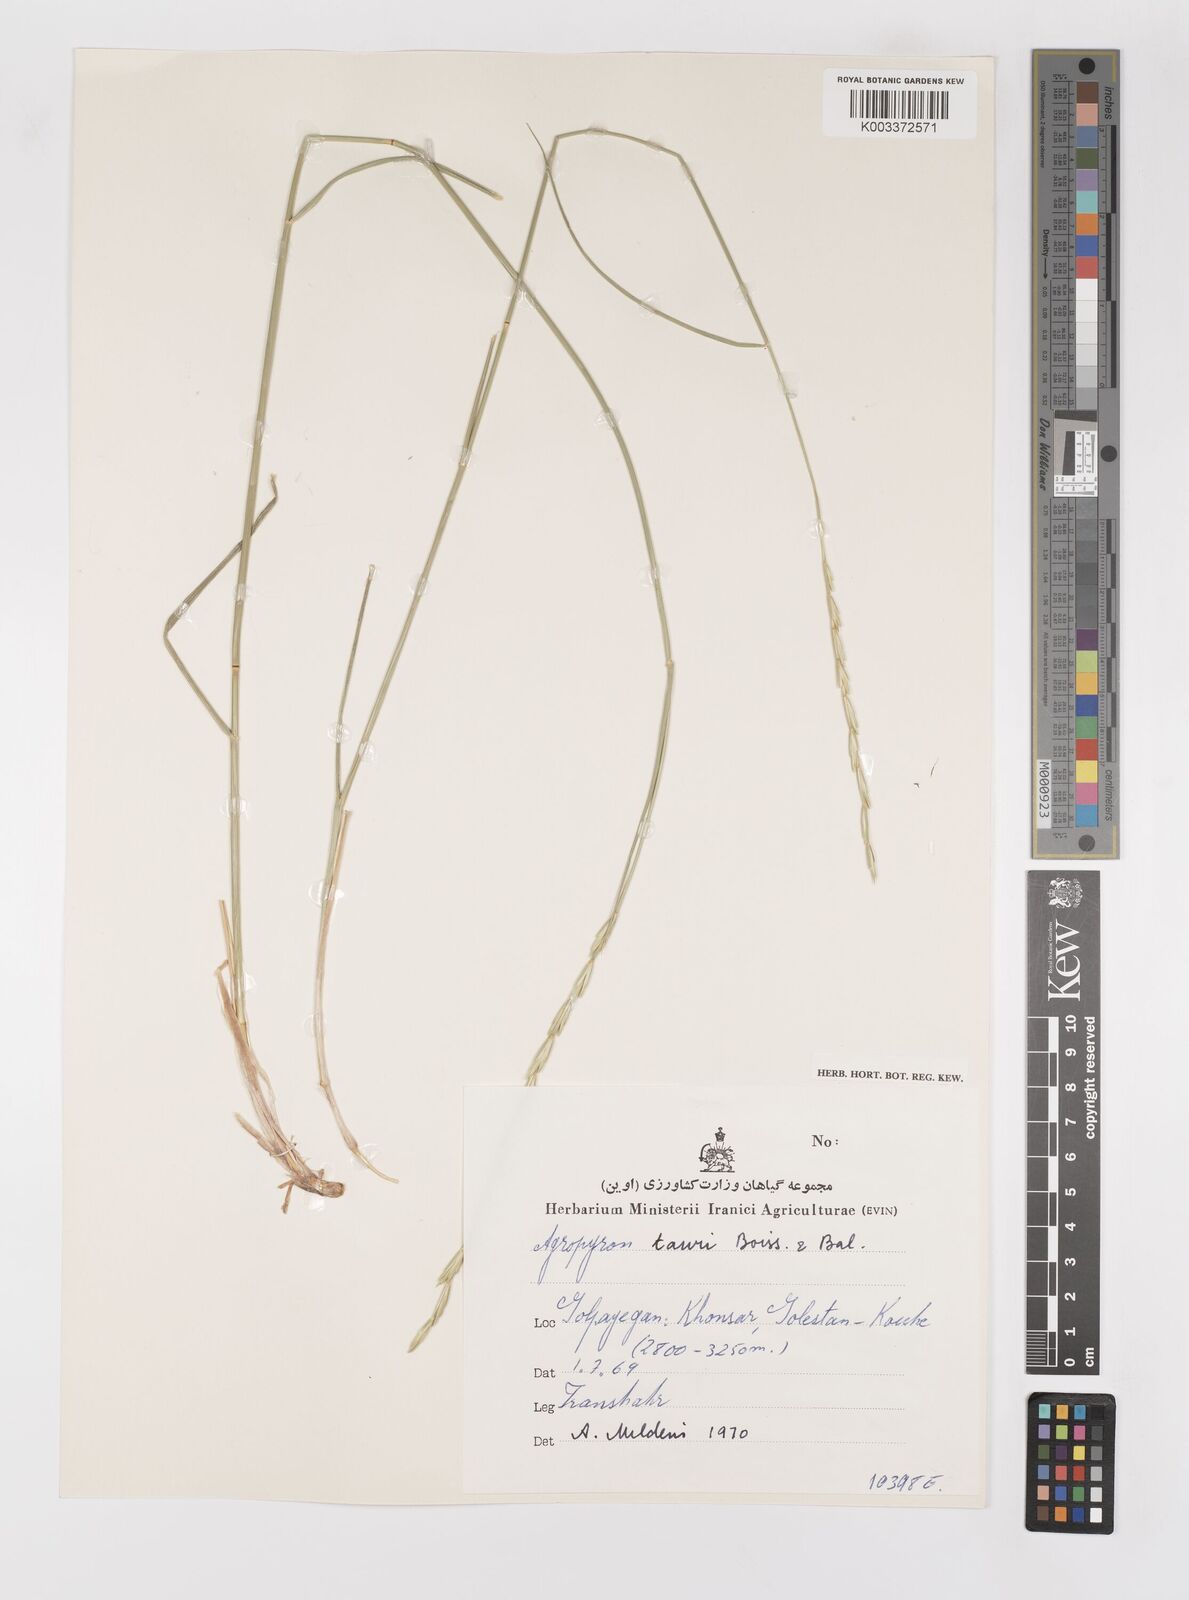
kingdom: Plantae
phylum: Tracheophyta
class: Liliopsida
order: Poales
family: Poaceae
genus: Pseudoroegneria
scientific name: Pseudoroegneria tauri
